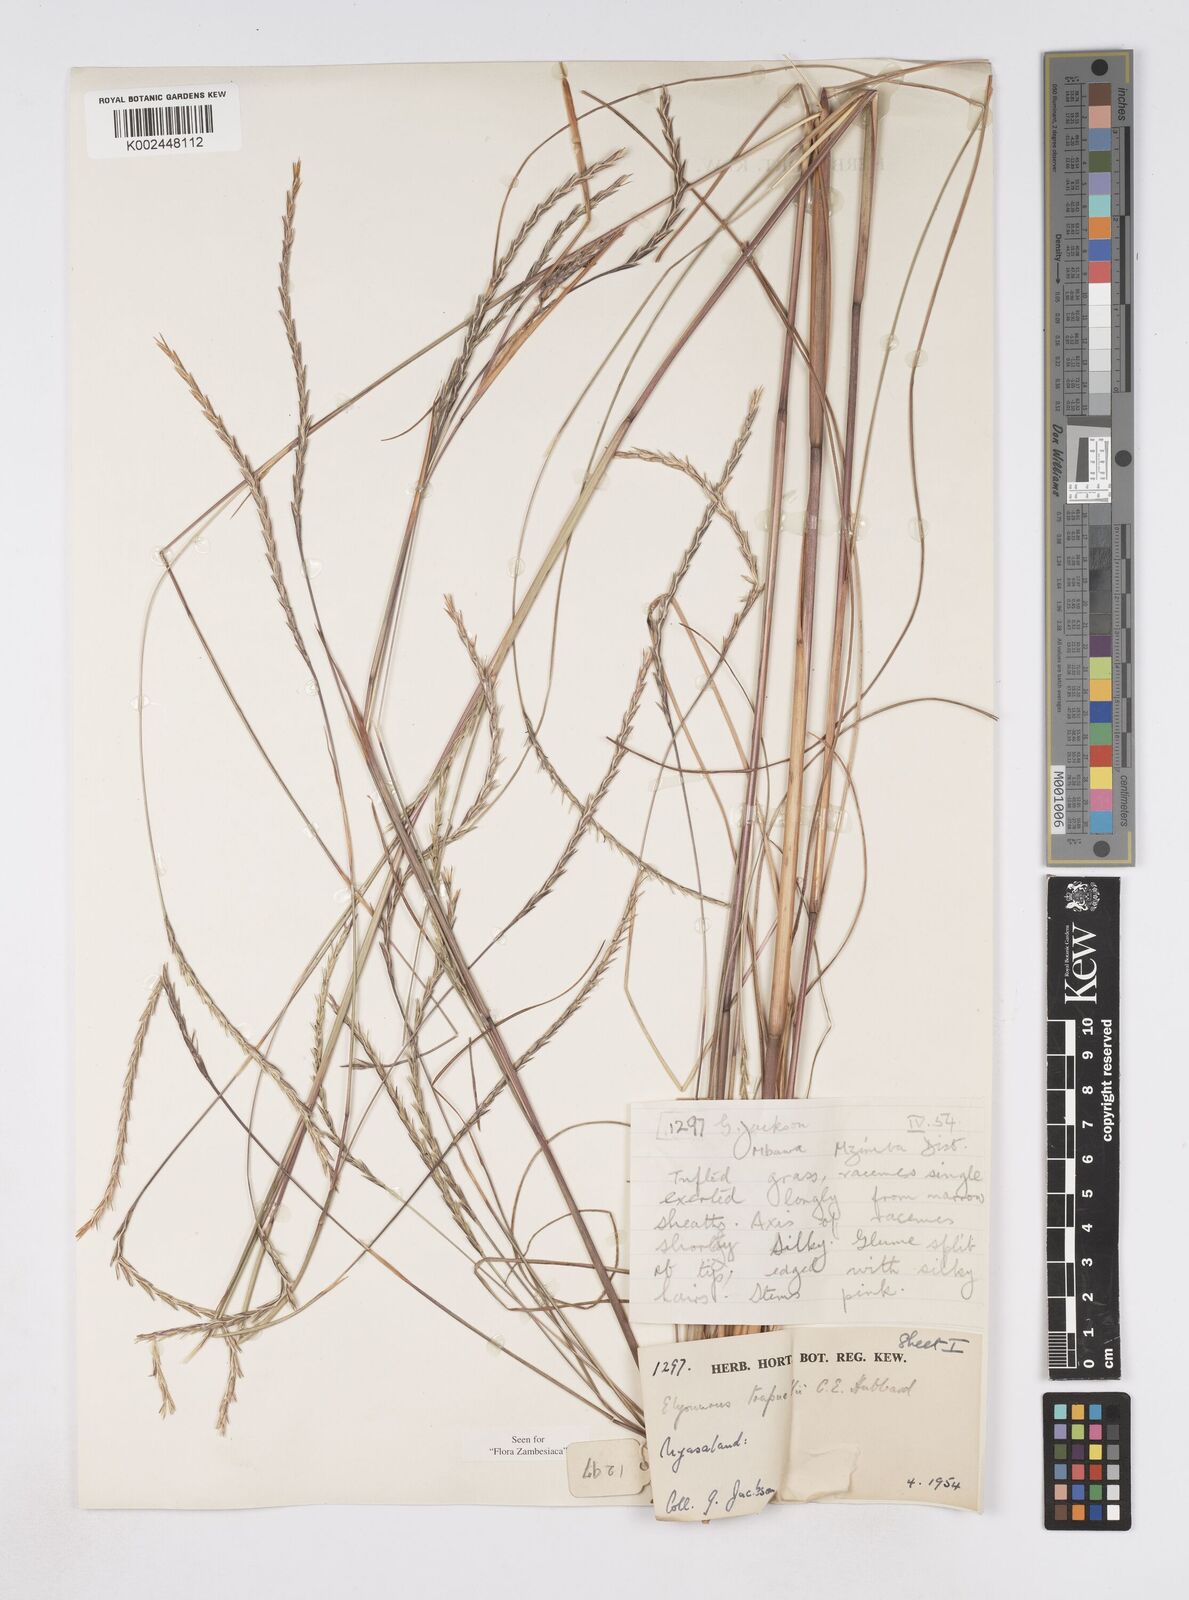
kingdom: Plantae
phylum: Tracheophyta
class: Liliopsida
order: Poales
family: Poaceae
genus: Elionurus
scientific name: Elionurus
